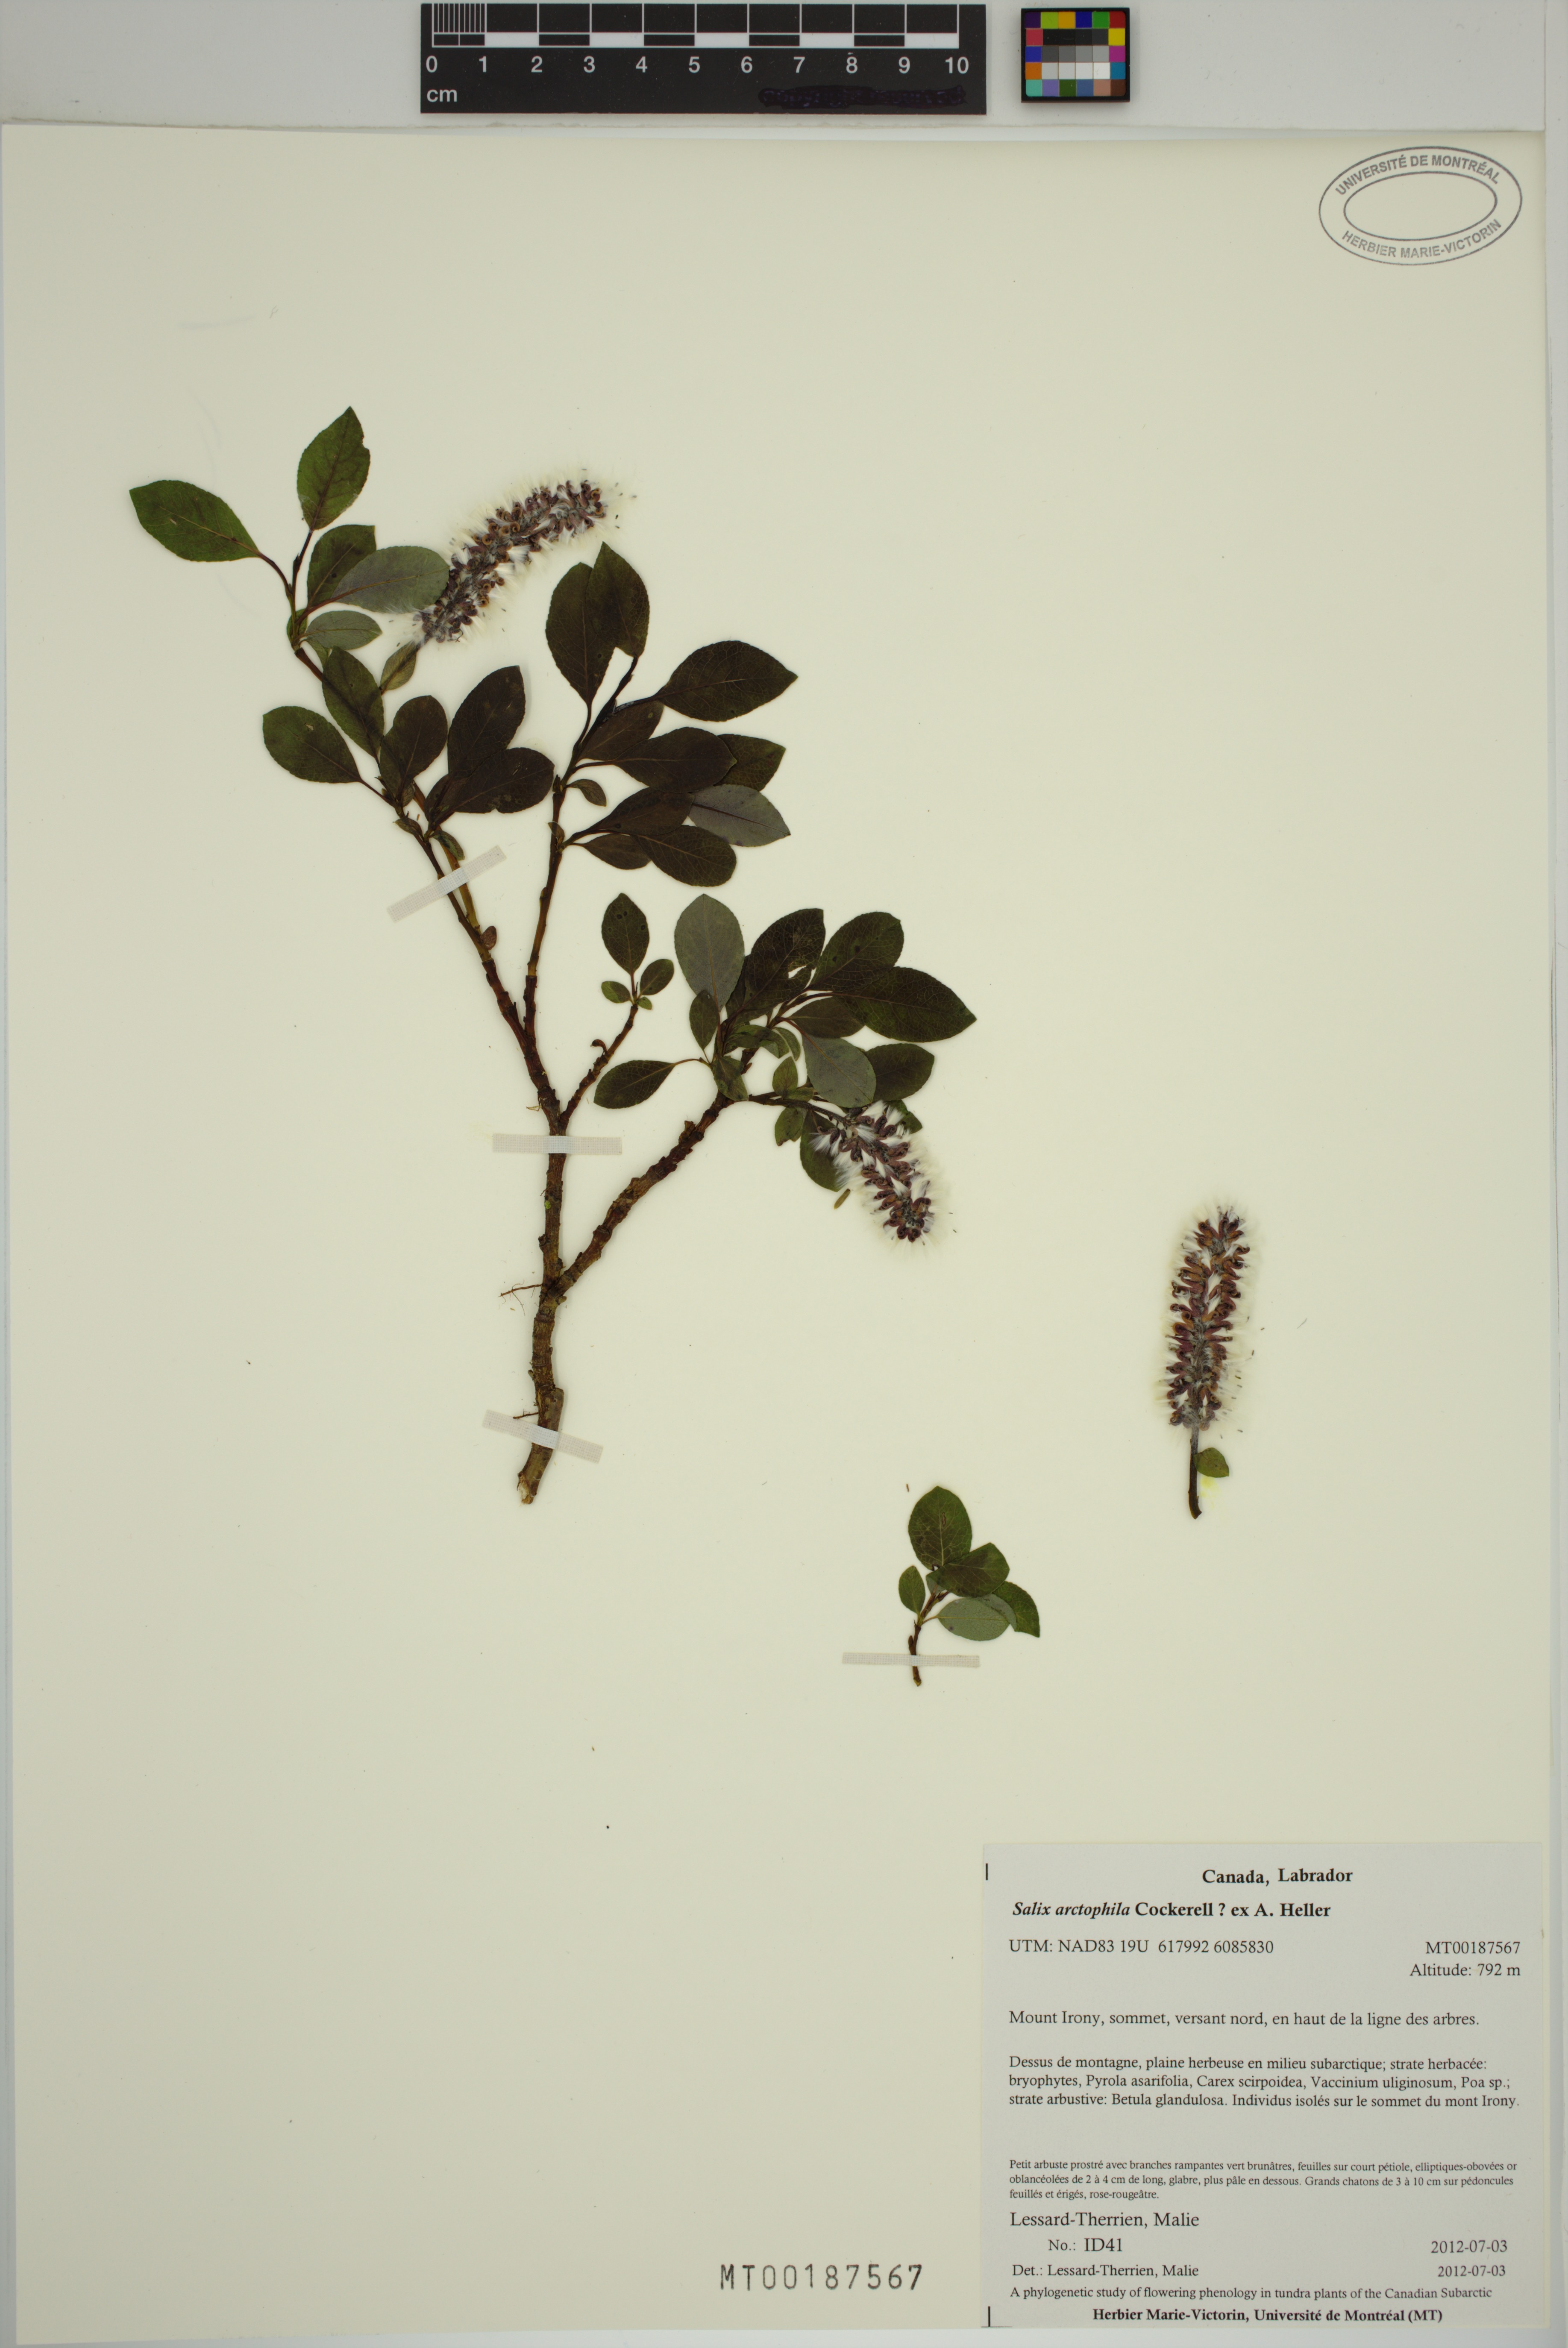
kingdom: Plantae
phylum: Tracheophyta
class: Magnoliopsida
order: Malpighiales
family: Salicaceae
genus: Salix
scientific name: Salix arctophila
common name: Greenland willow
